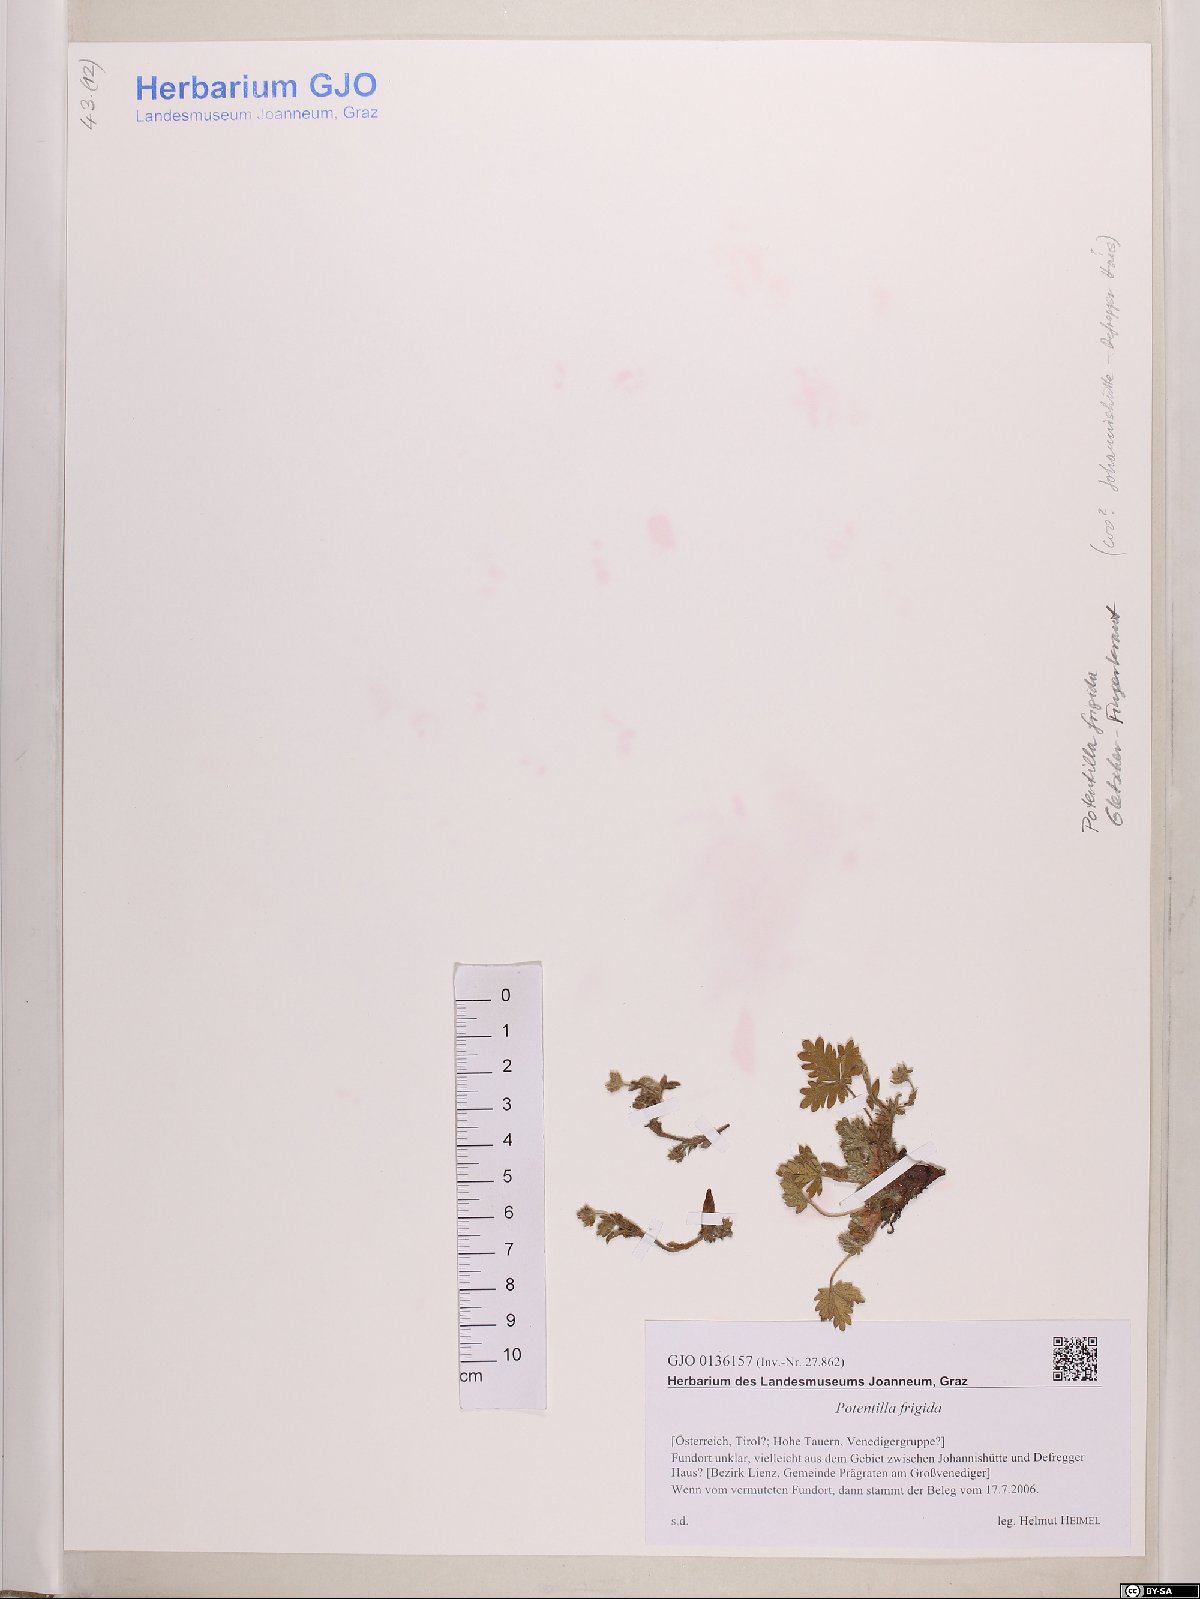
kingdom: Plantae
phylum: Tracheophyta
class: Magnoliopsida
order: Rosales
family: Rosaceae
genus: Potentilla
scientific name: Potentilla frigida
